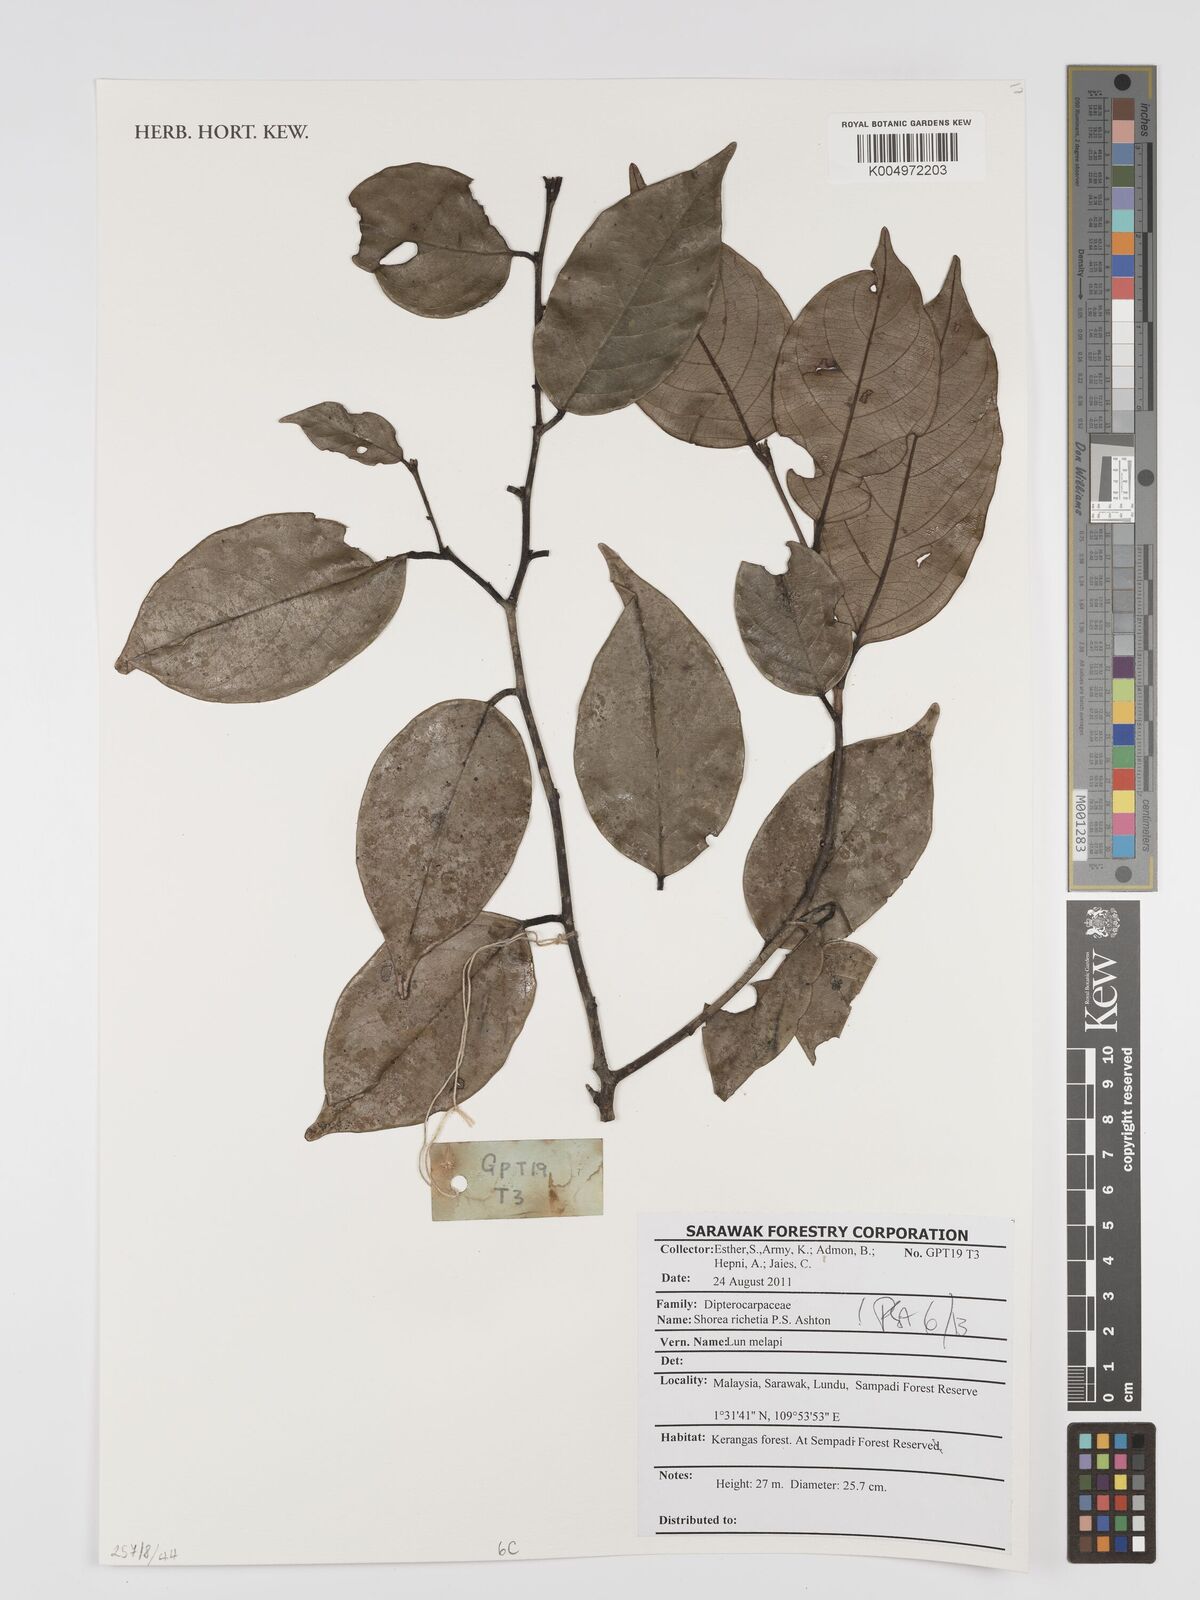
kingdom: Plantae
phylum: Tracheophyta
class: Magnoliopsida
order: Malvales
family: Dipterocarpaceae
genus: Shorea
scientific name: Shorea richetia
